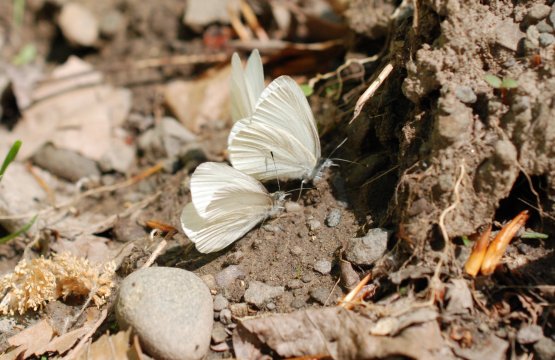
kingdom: Animalia
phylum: Arthropoda
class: Insecta
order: Lepidoptera
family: Pieridae
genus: Pieris
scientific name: Pieris virginiensis
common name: West Virginia White
